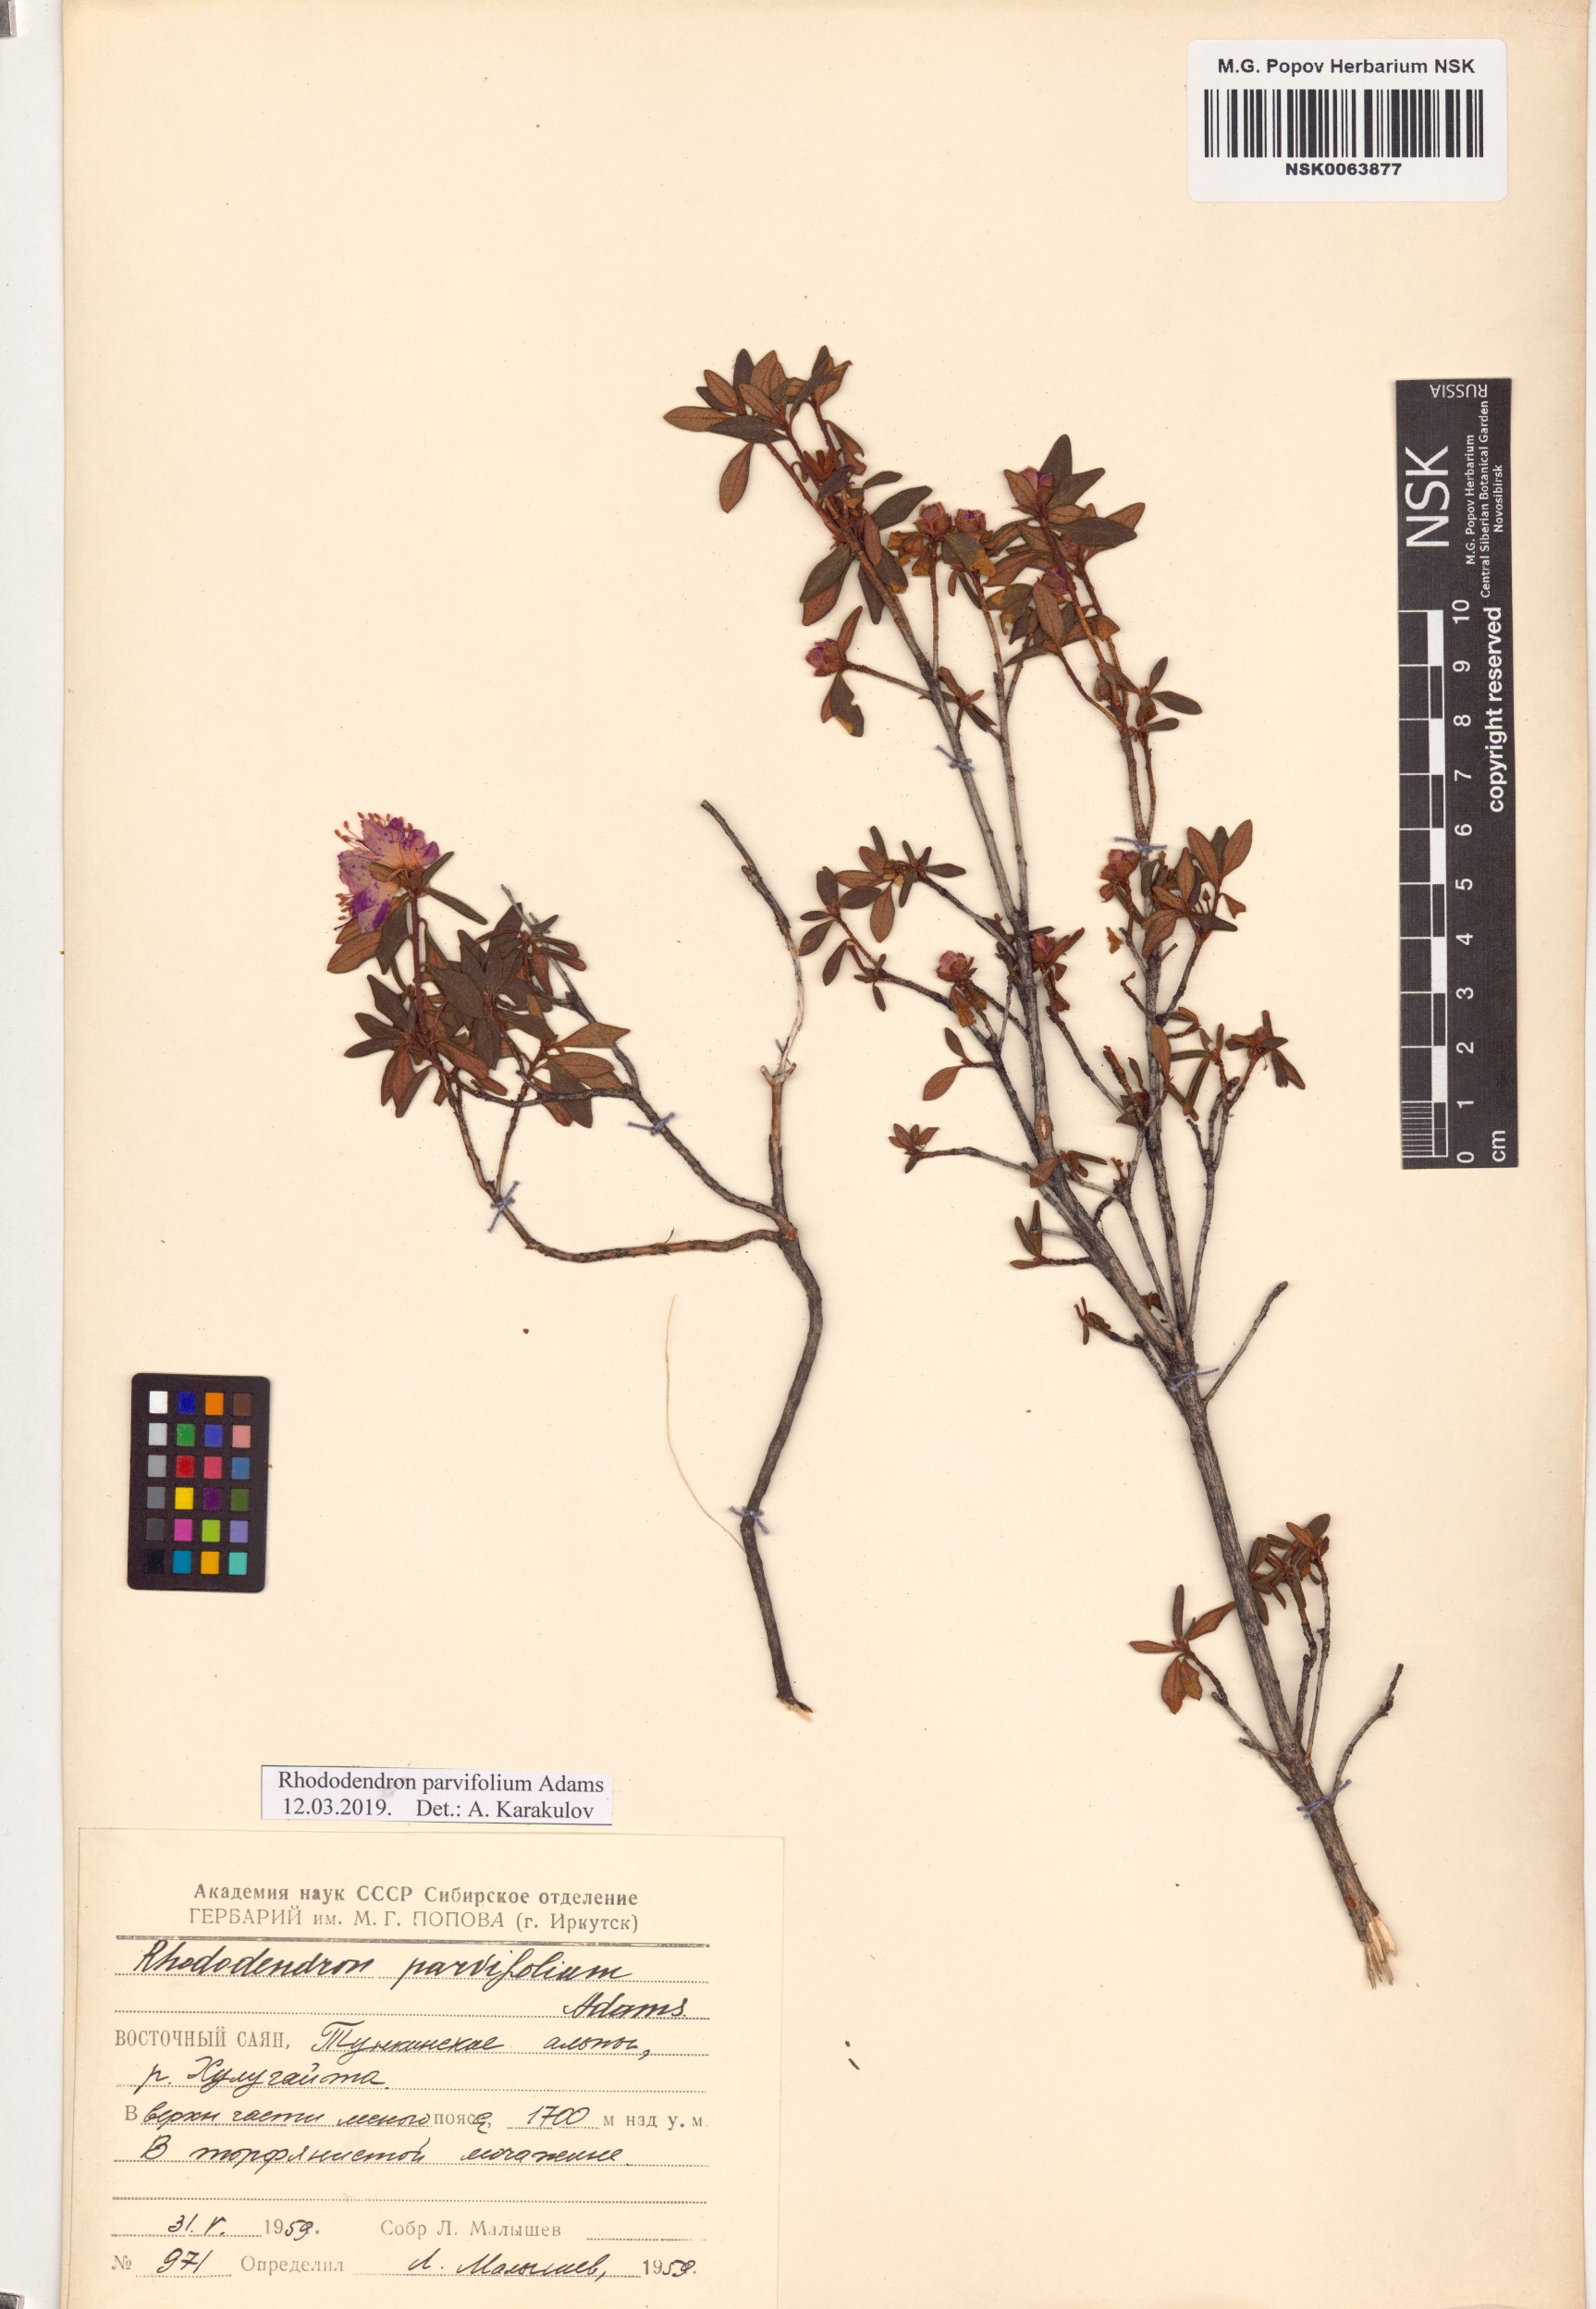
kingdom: Plantae
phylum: Tracheophyta
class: Magnoliopsida
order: Ericales
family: Ericaceae
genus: Rhododendron
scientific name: Rhododendron parvifolium
